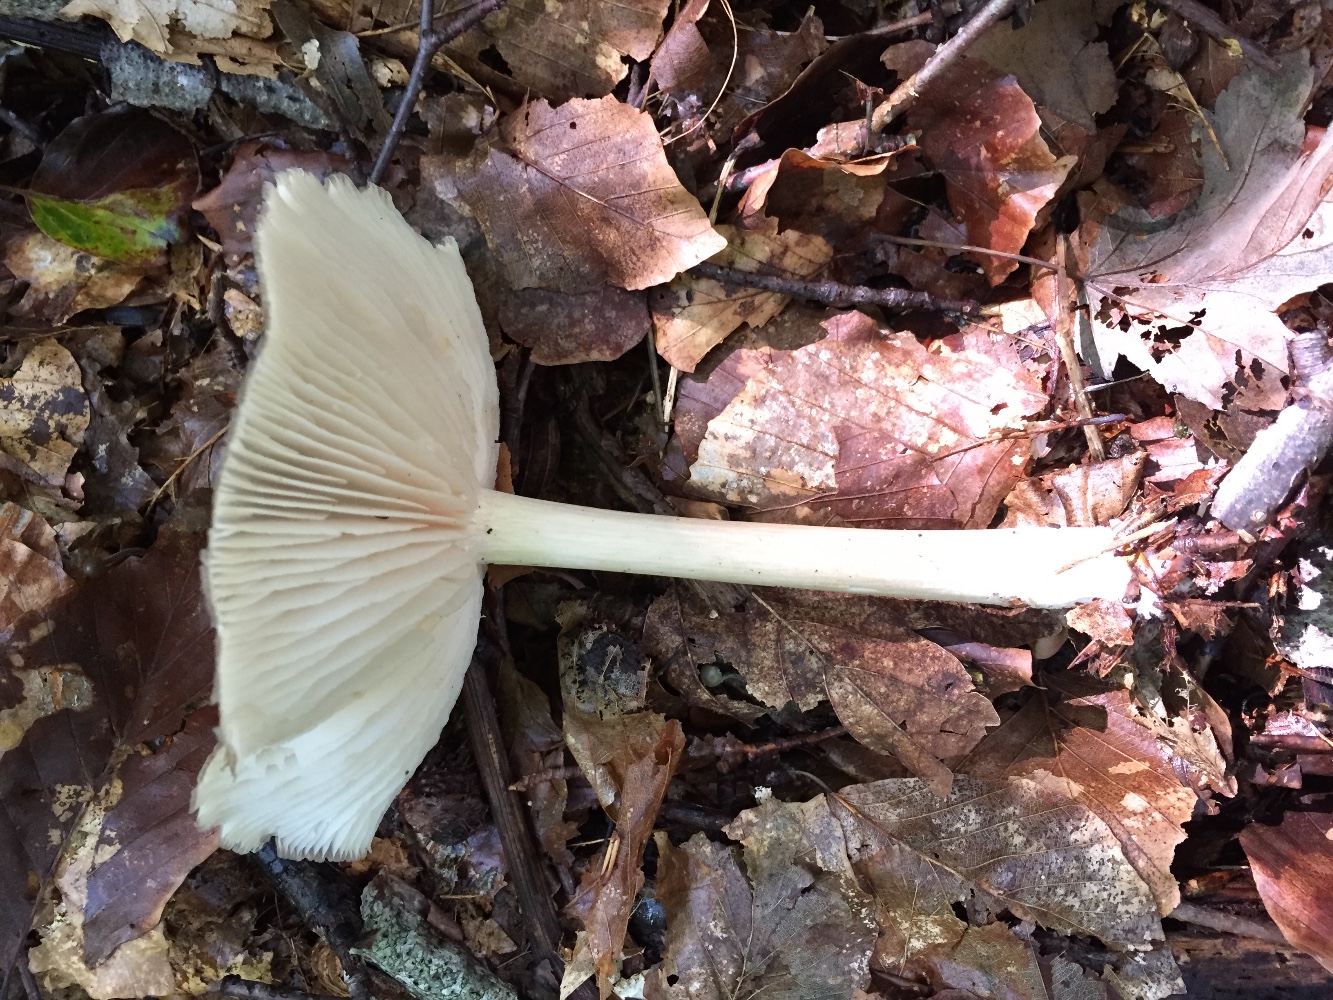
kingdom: Fungi
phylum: Basidiomycota
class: Agaricomycetes
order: Agaricales
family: Tricholomataceae
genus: Megacollybia
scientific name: Megacollybia platyphylla
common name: bredbladet væbnerhat
